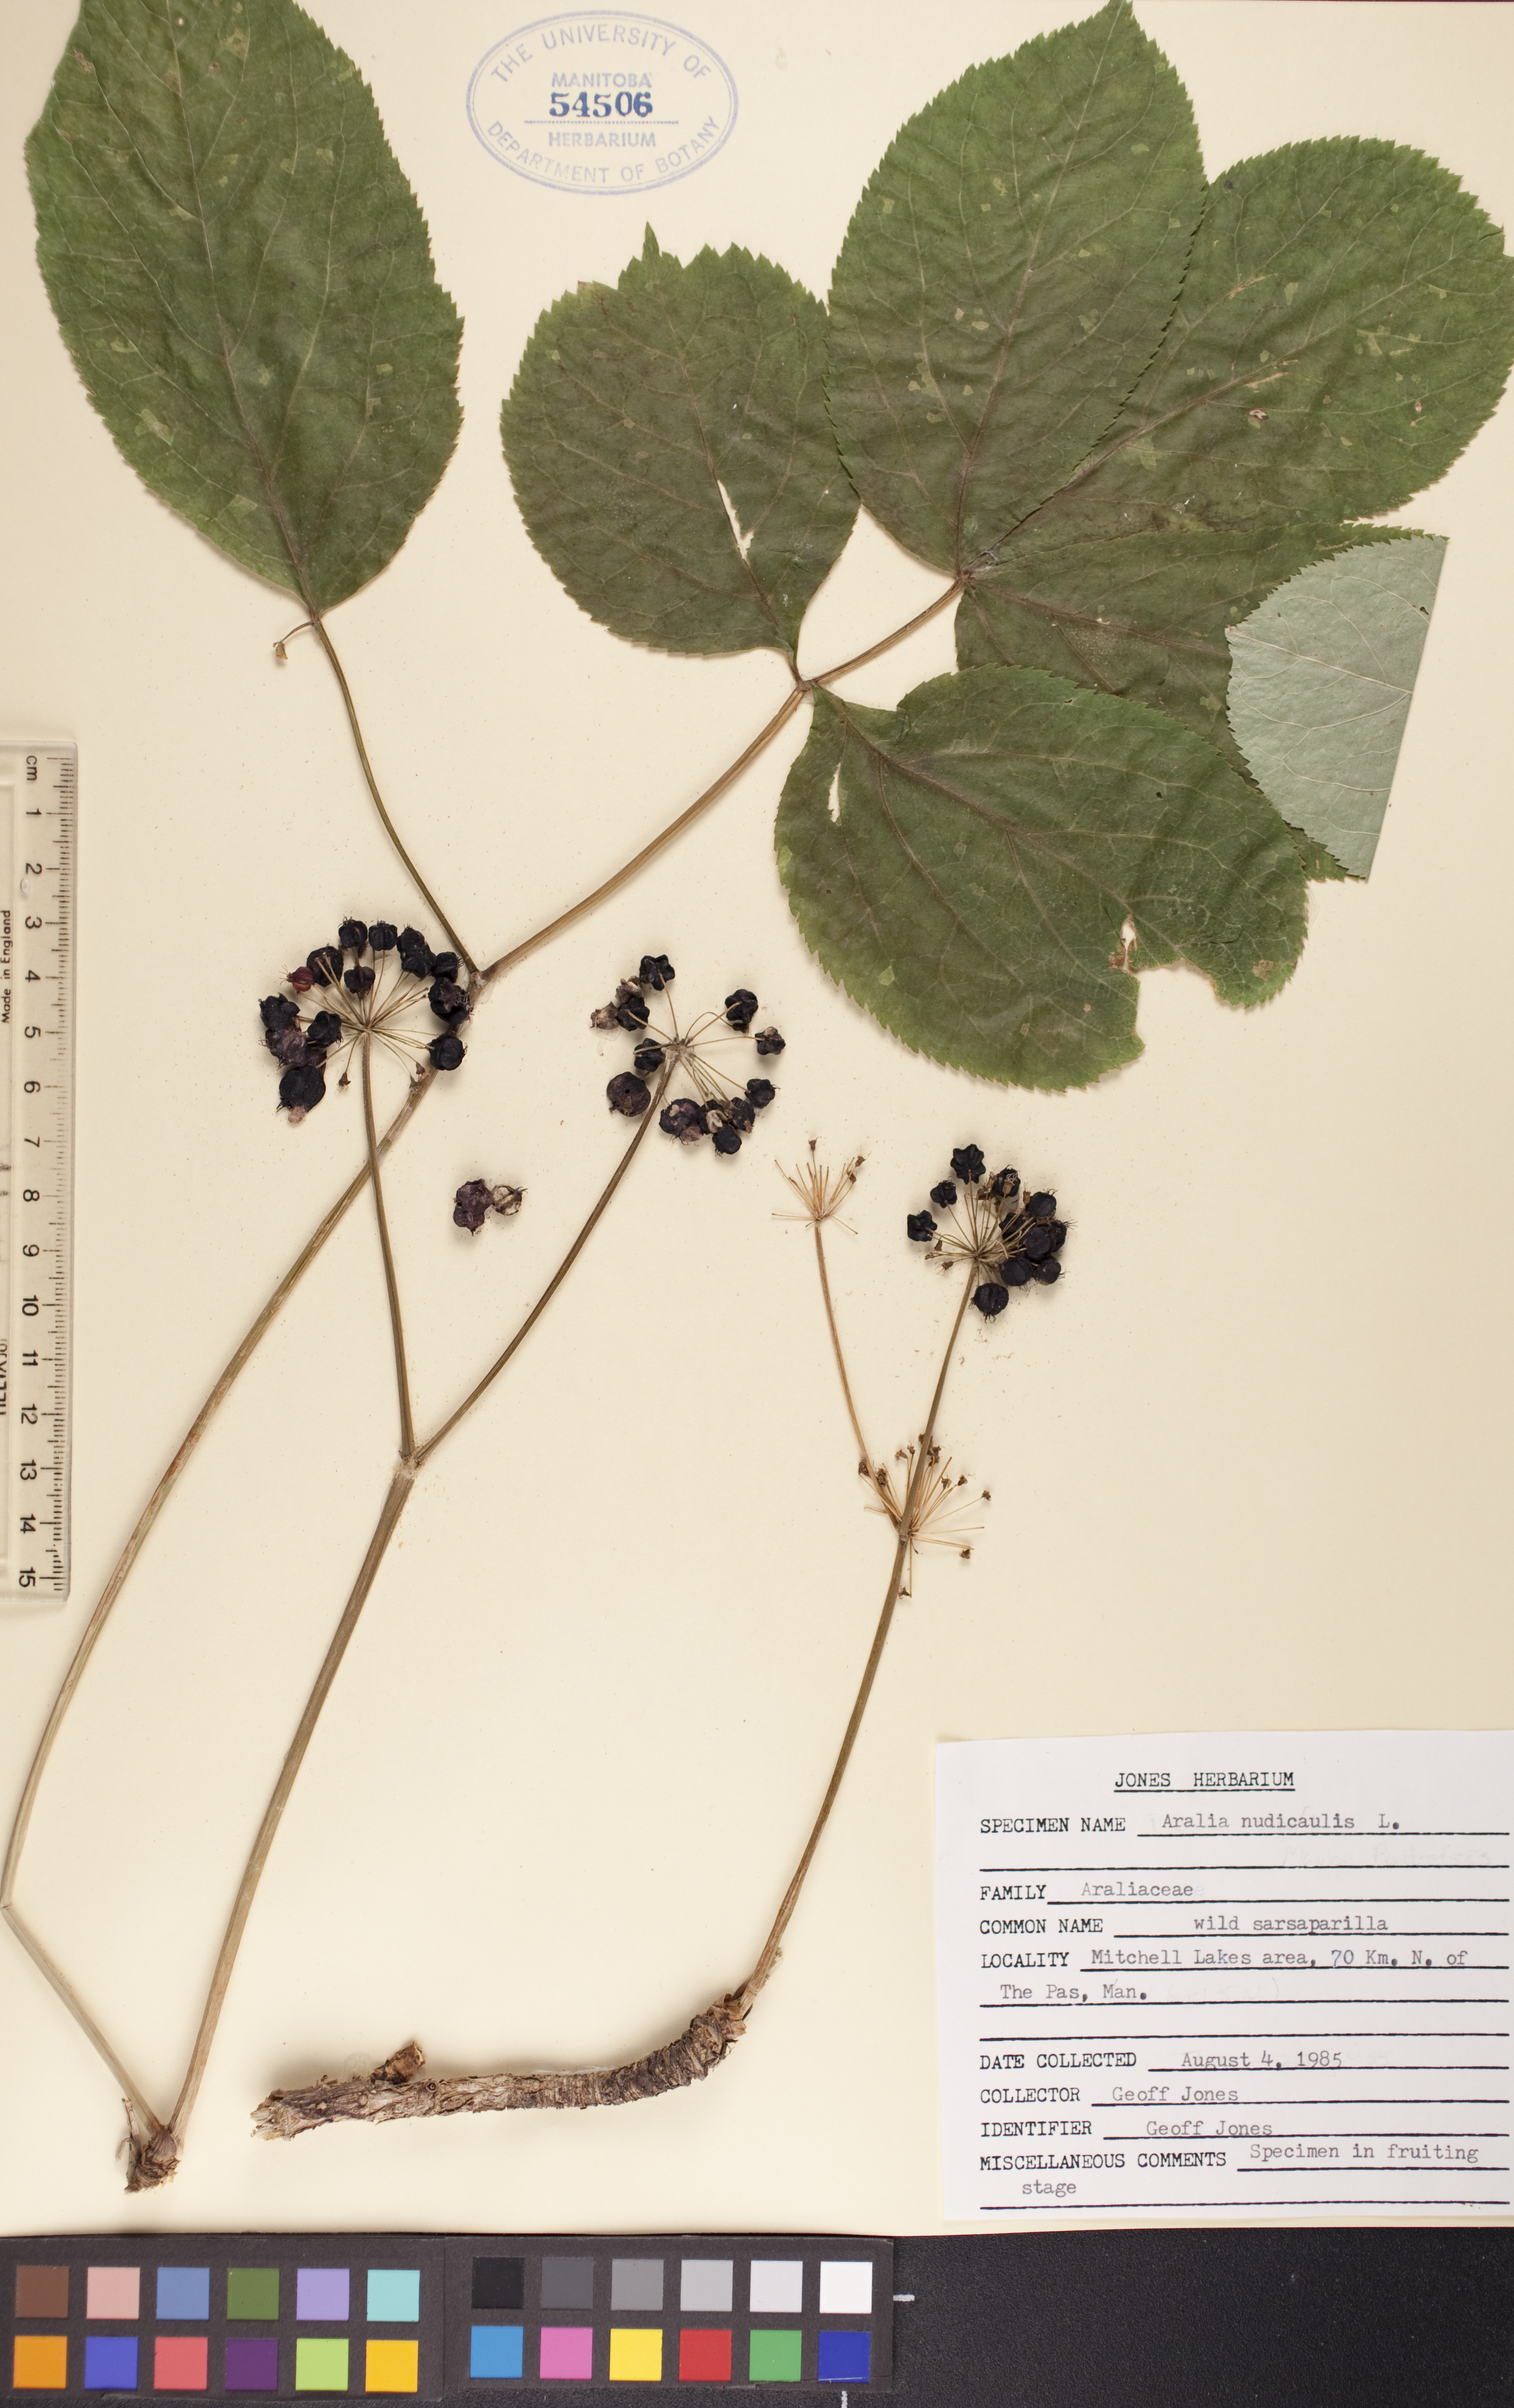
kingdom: Plantae
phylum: Tracheophyta
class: Magnoliopsida
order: Apiales
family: Araliaceae
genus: Aralia
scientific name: Aralia nudicaulis
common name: Wild sarsaparilla
